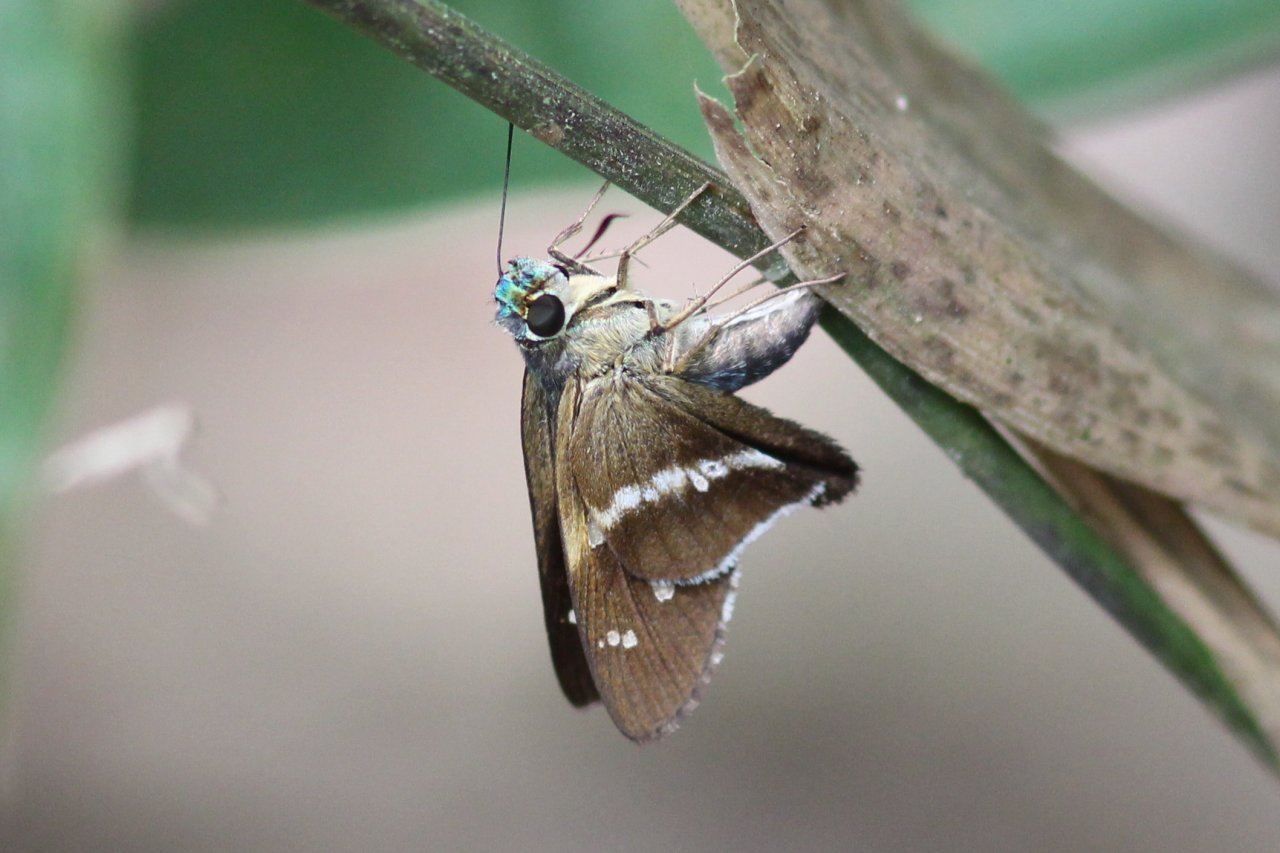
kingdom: Animalia
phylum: Arthropoda
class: Insecta
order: Lepidoptera
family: Hesperiidae
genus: Niconiades
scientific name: Niconiades xanthaphes
